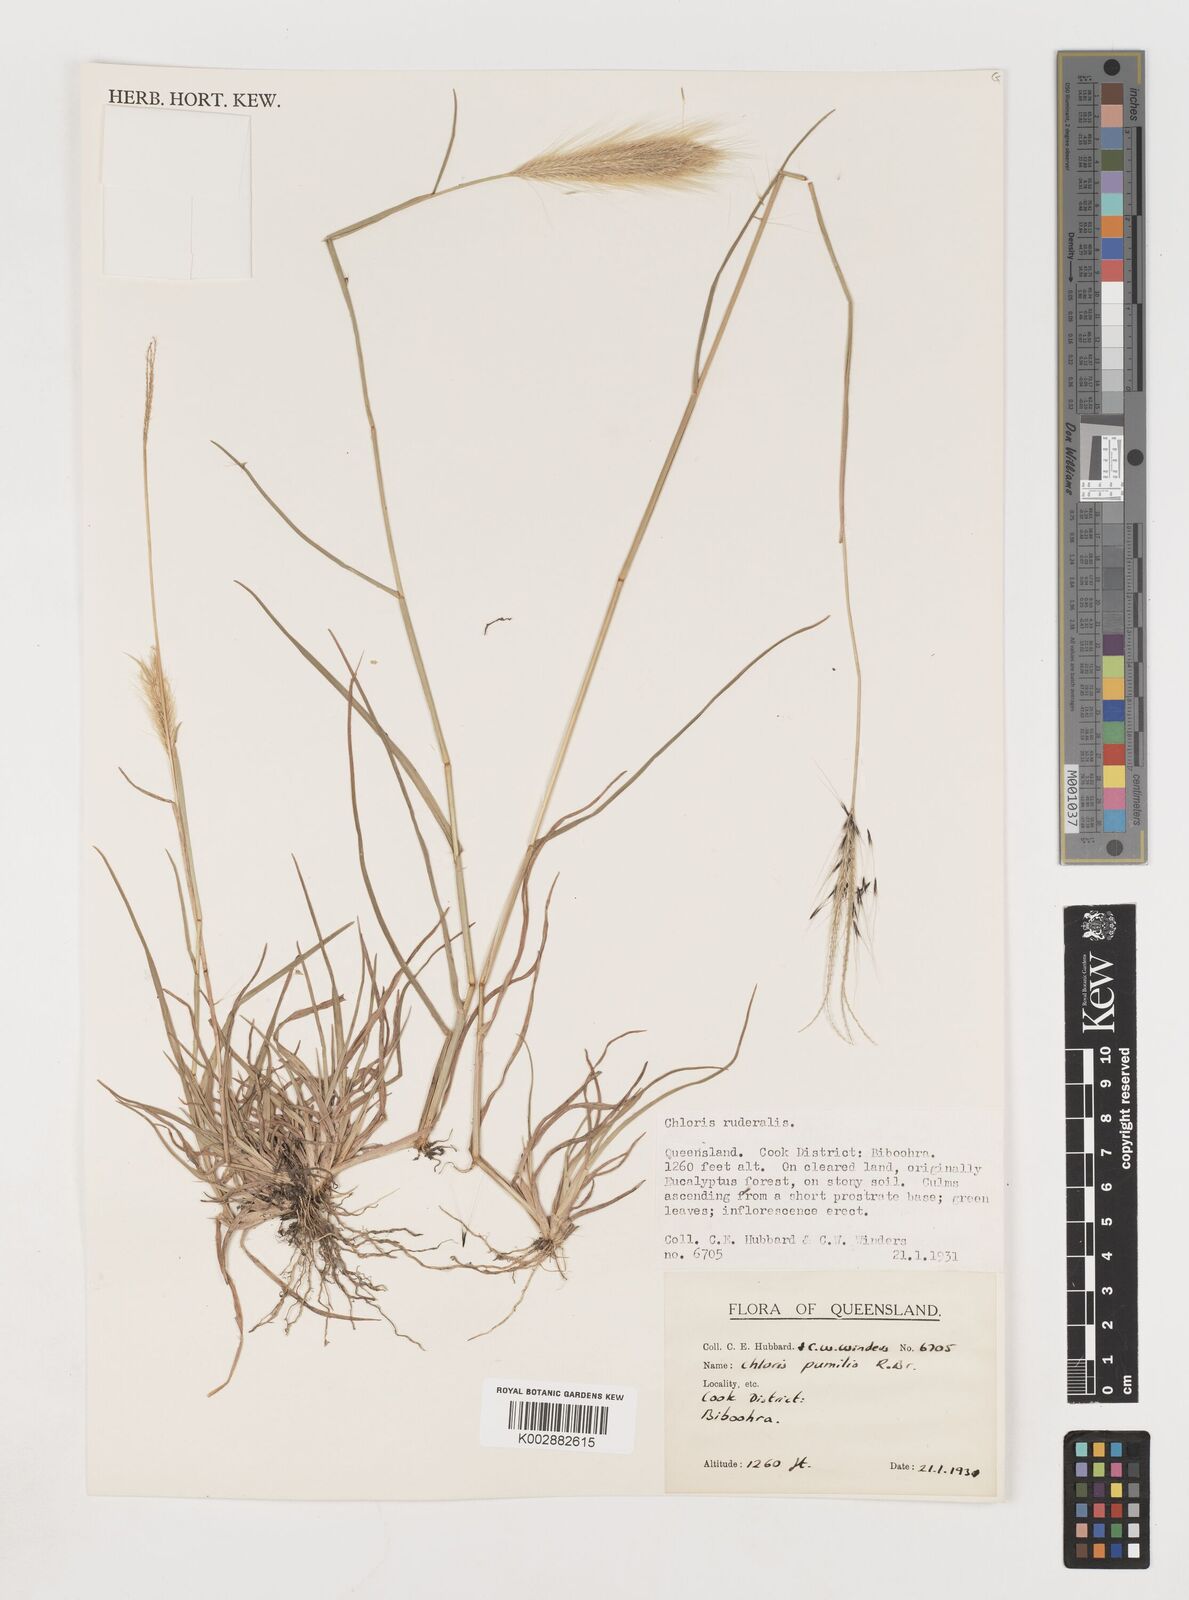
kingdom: Plantae
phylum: Tracheophyta
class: Liliopsida
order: Poales
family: Poaceae
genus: Chloris
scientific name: Chloris pumilio
